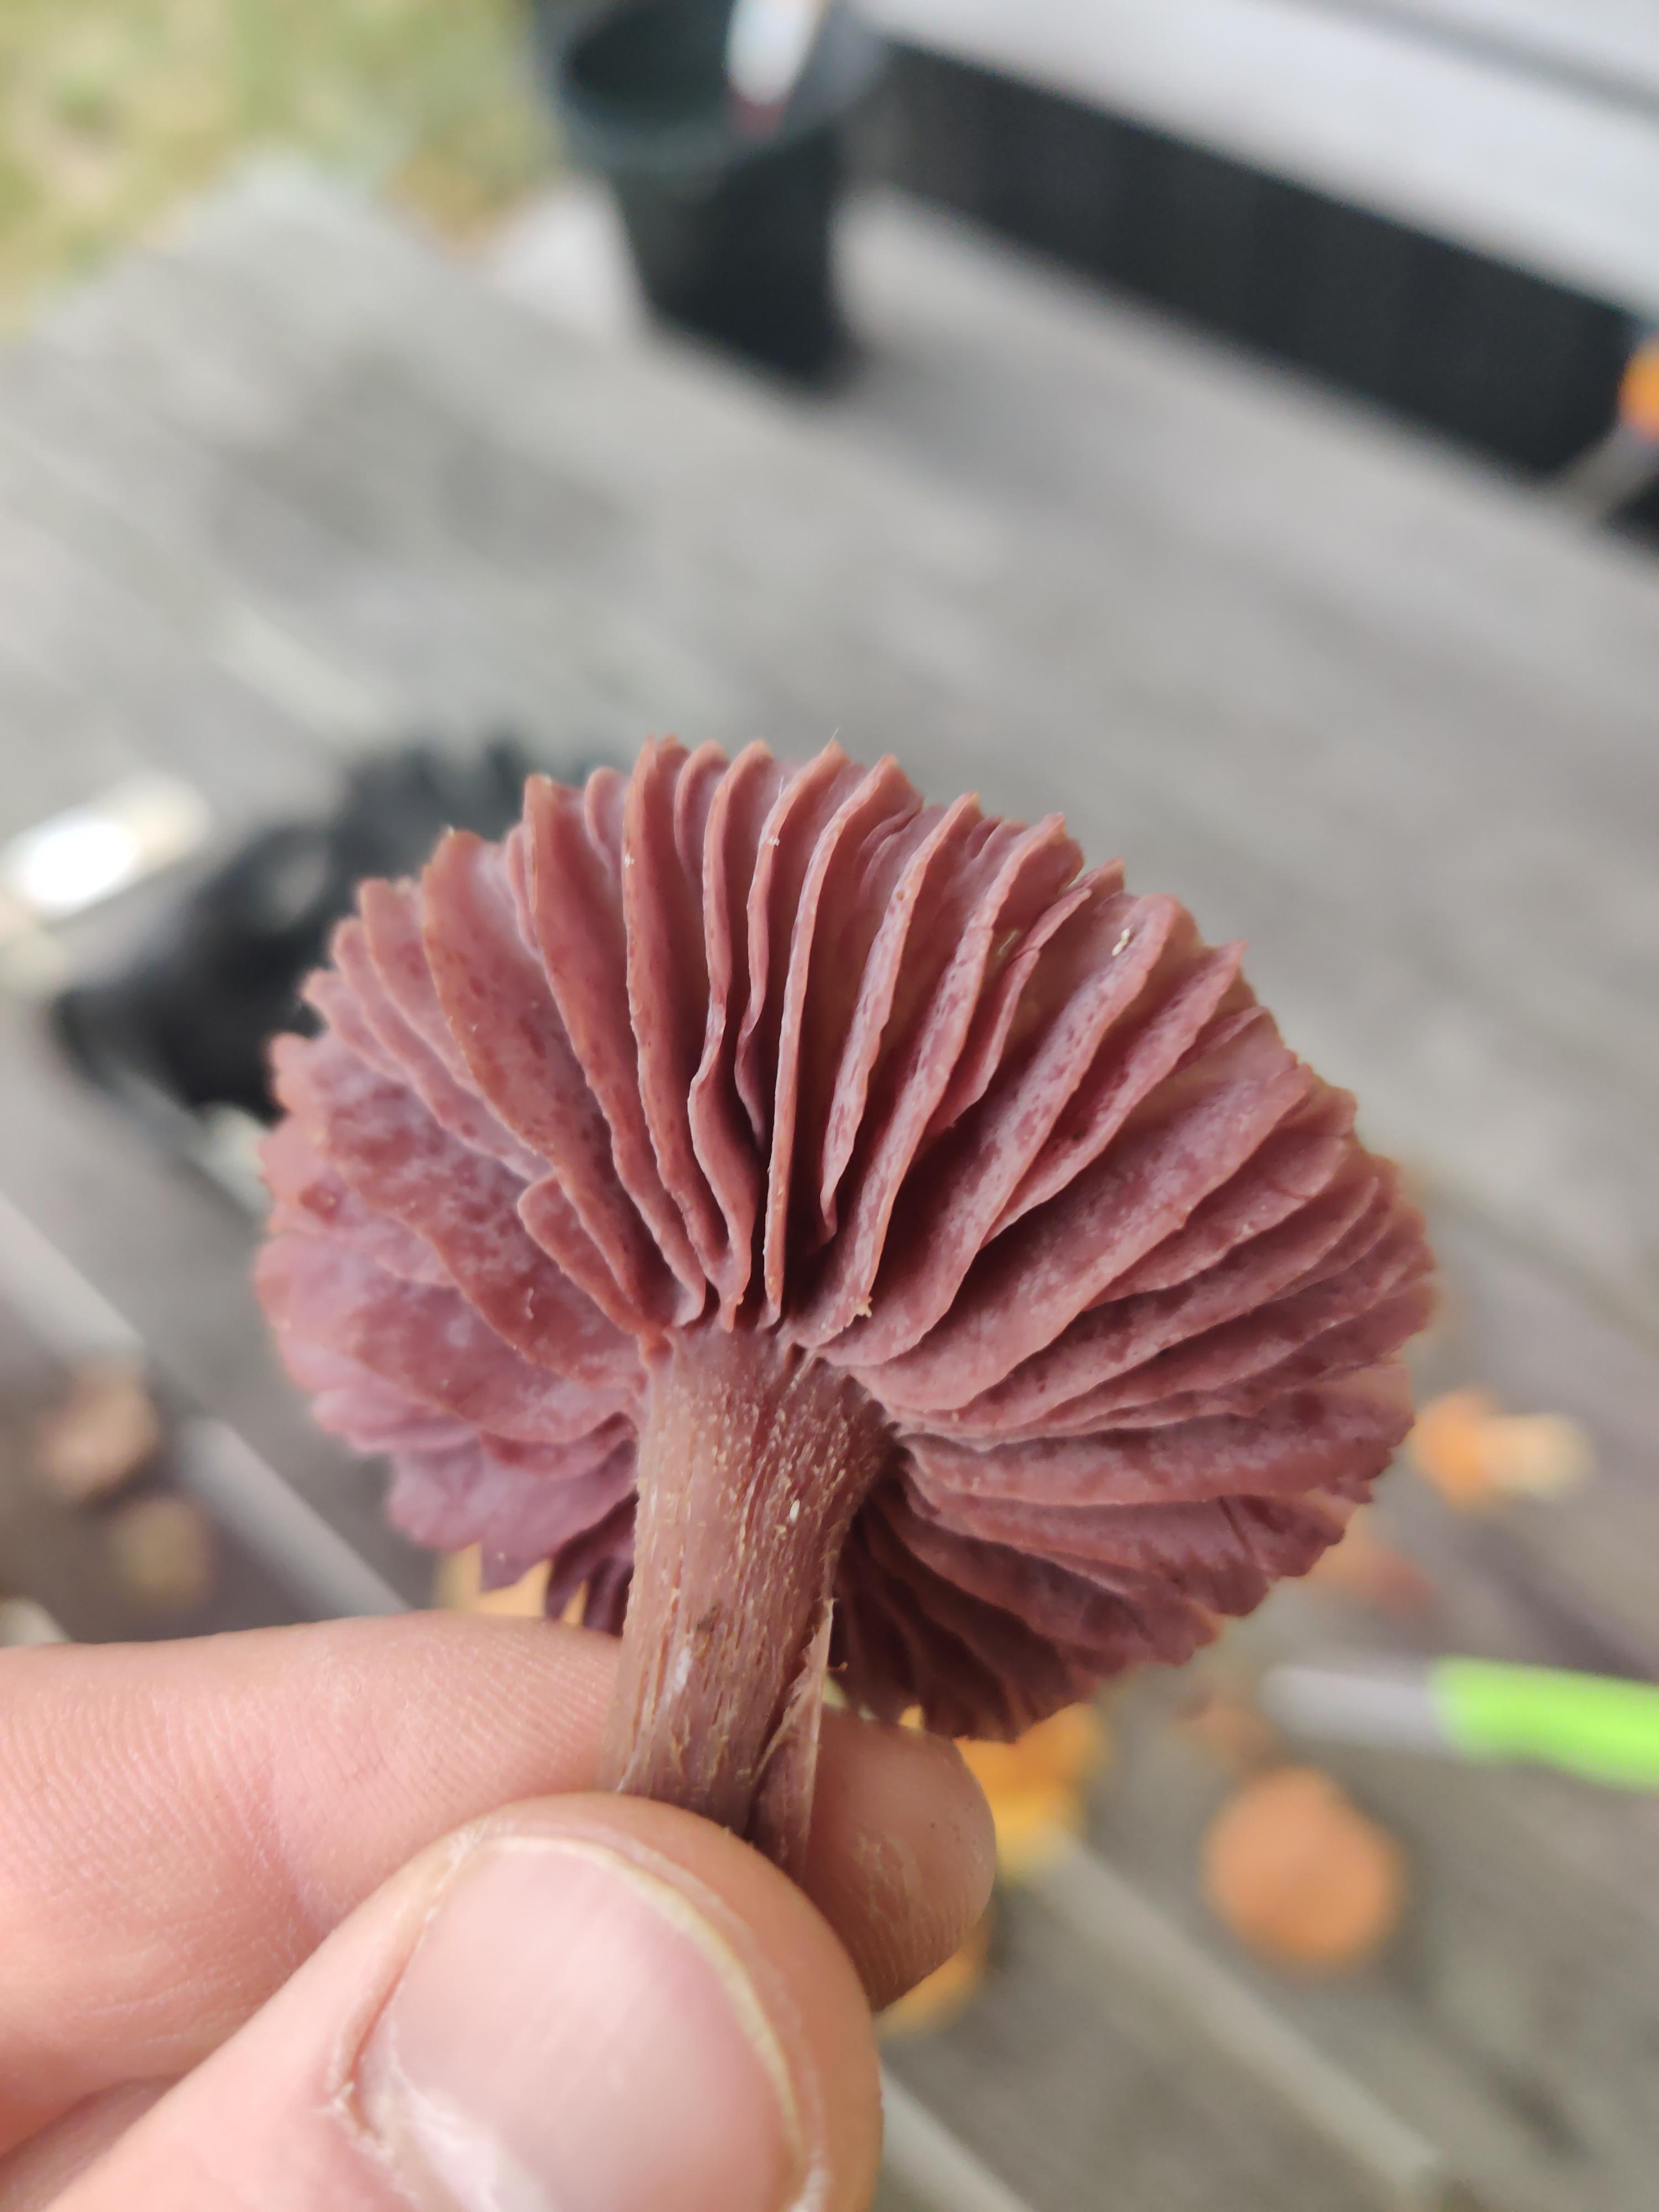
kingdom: Fungi
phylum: Basidiomycota
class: Agaricomycetes
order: Agaricales
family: Hydnangiaceae
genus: Laccaria
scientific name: Laccaria amethystina
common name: violet ametysthat
